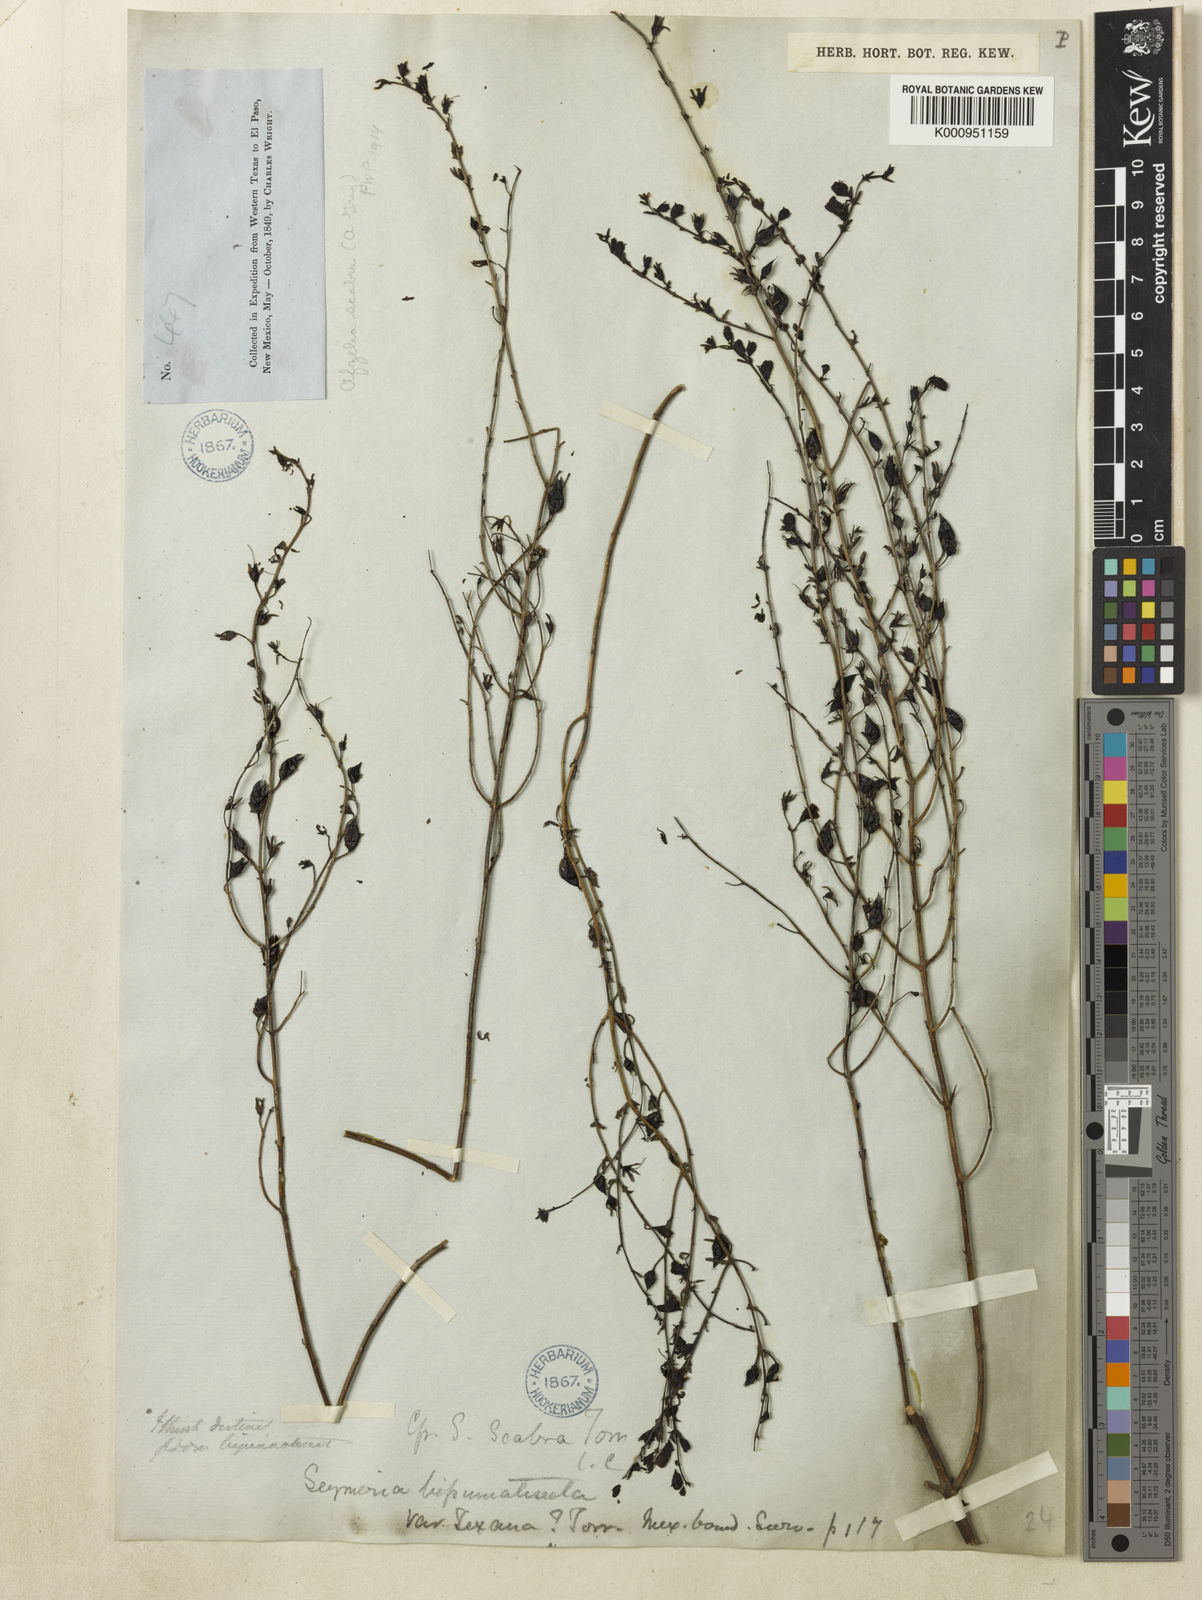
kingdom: Plantae
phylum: Tracheophyta
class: Magnoliopsida
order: Lamiales
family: Orobanchaceae
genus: Seymeria
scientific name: Seymeria scabra
